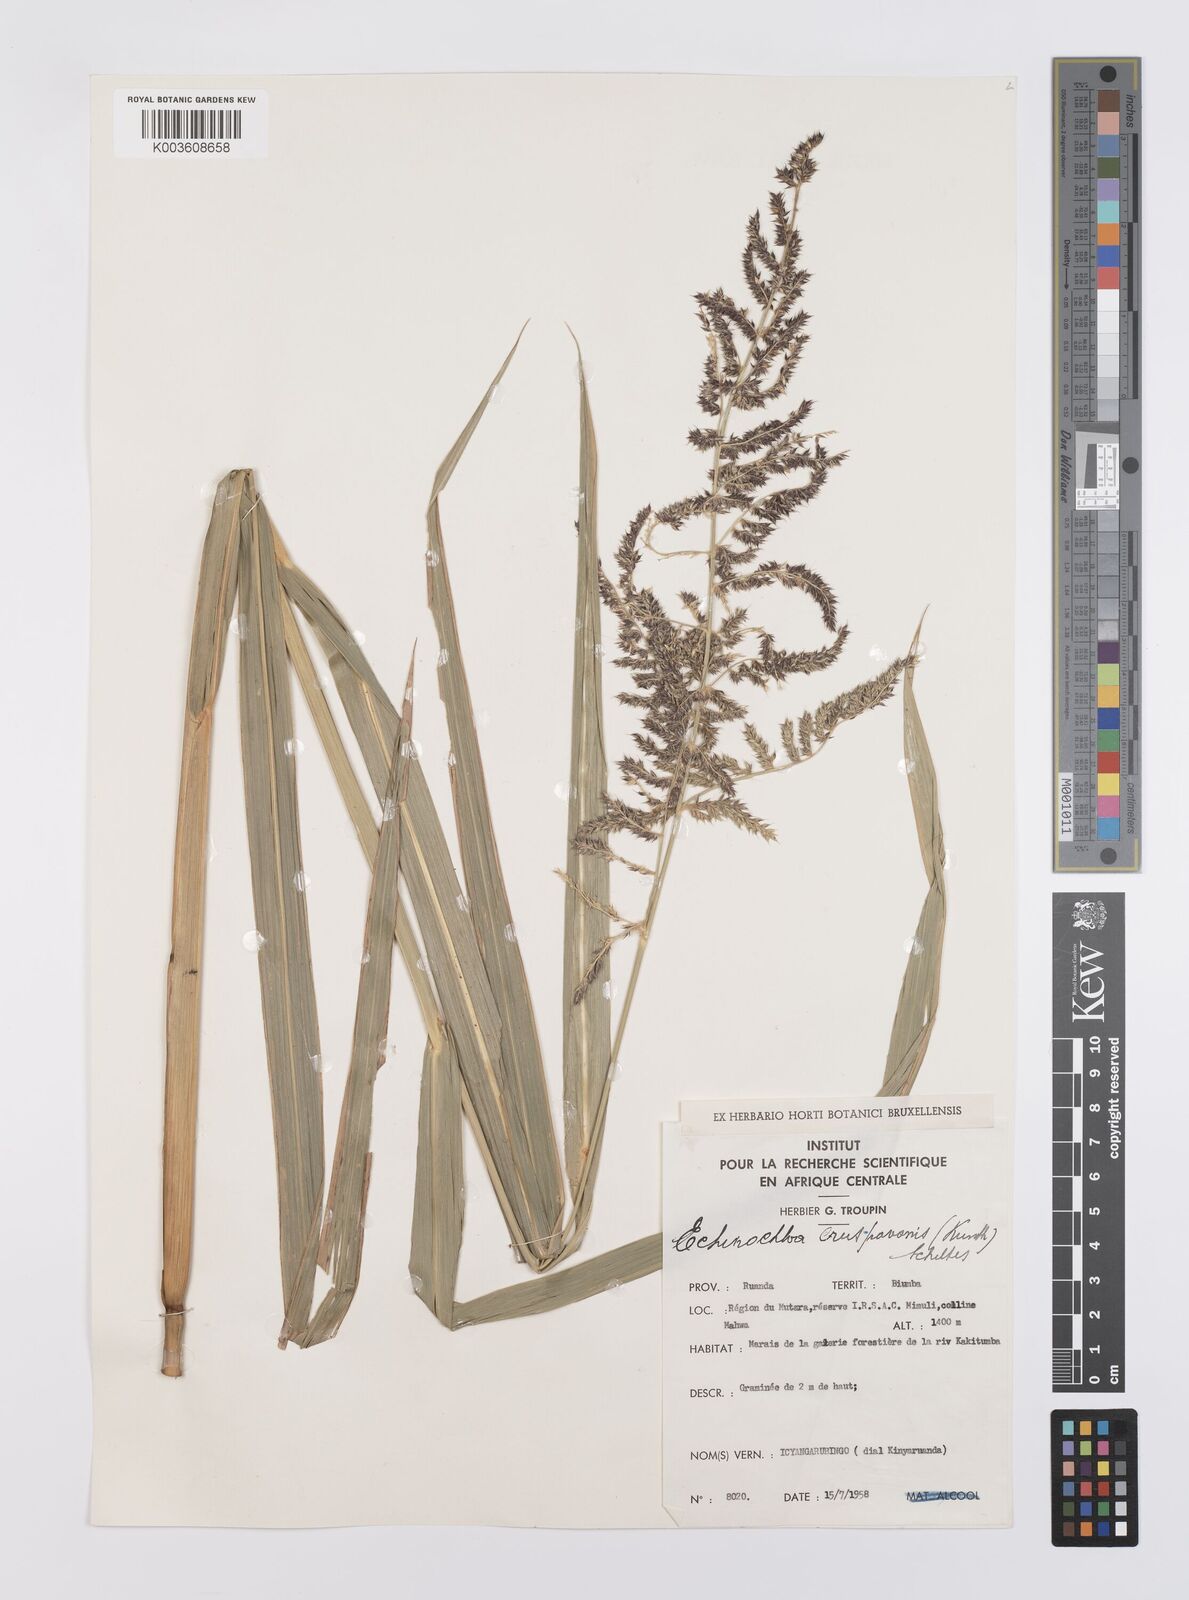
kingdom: Plantae
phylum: Tracheophyta
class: Liliopsida
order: Poales
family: Poaceae
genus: Echinochloa
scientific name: Echinochloa crus-pavonis
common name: Gulf cockspur grass
